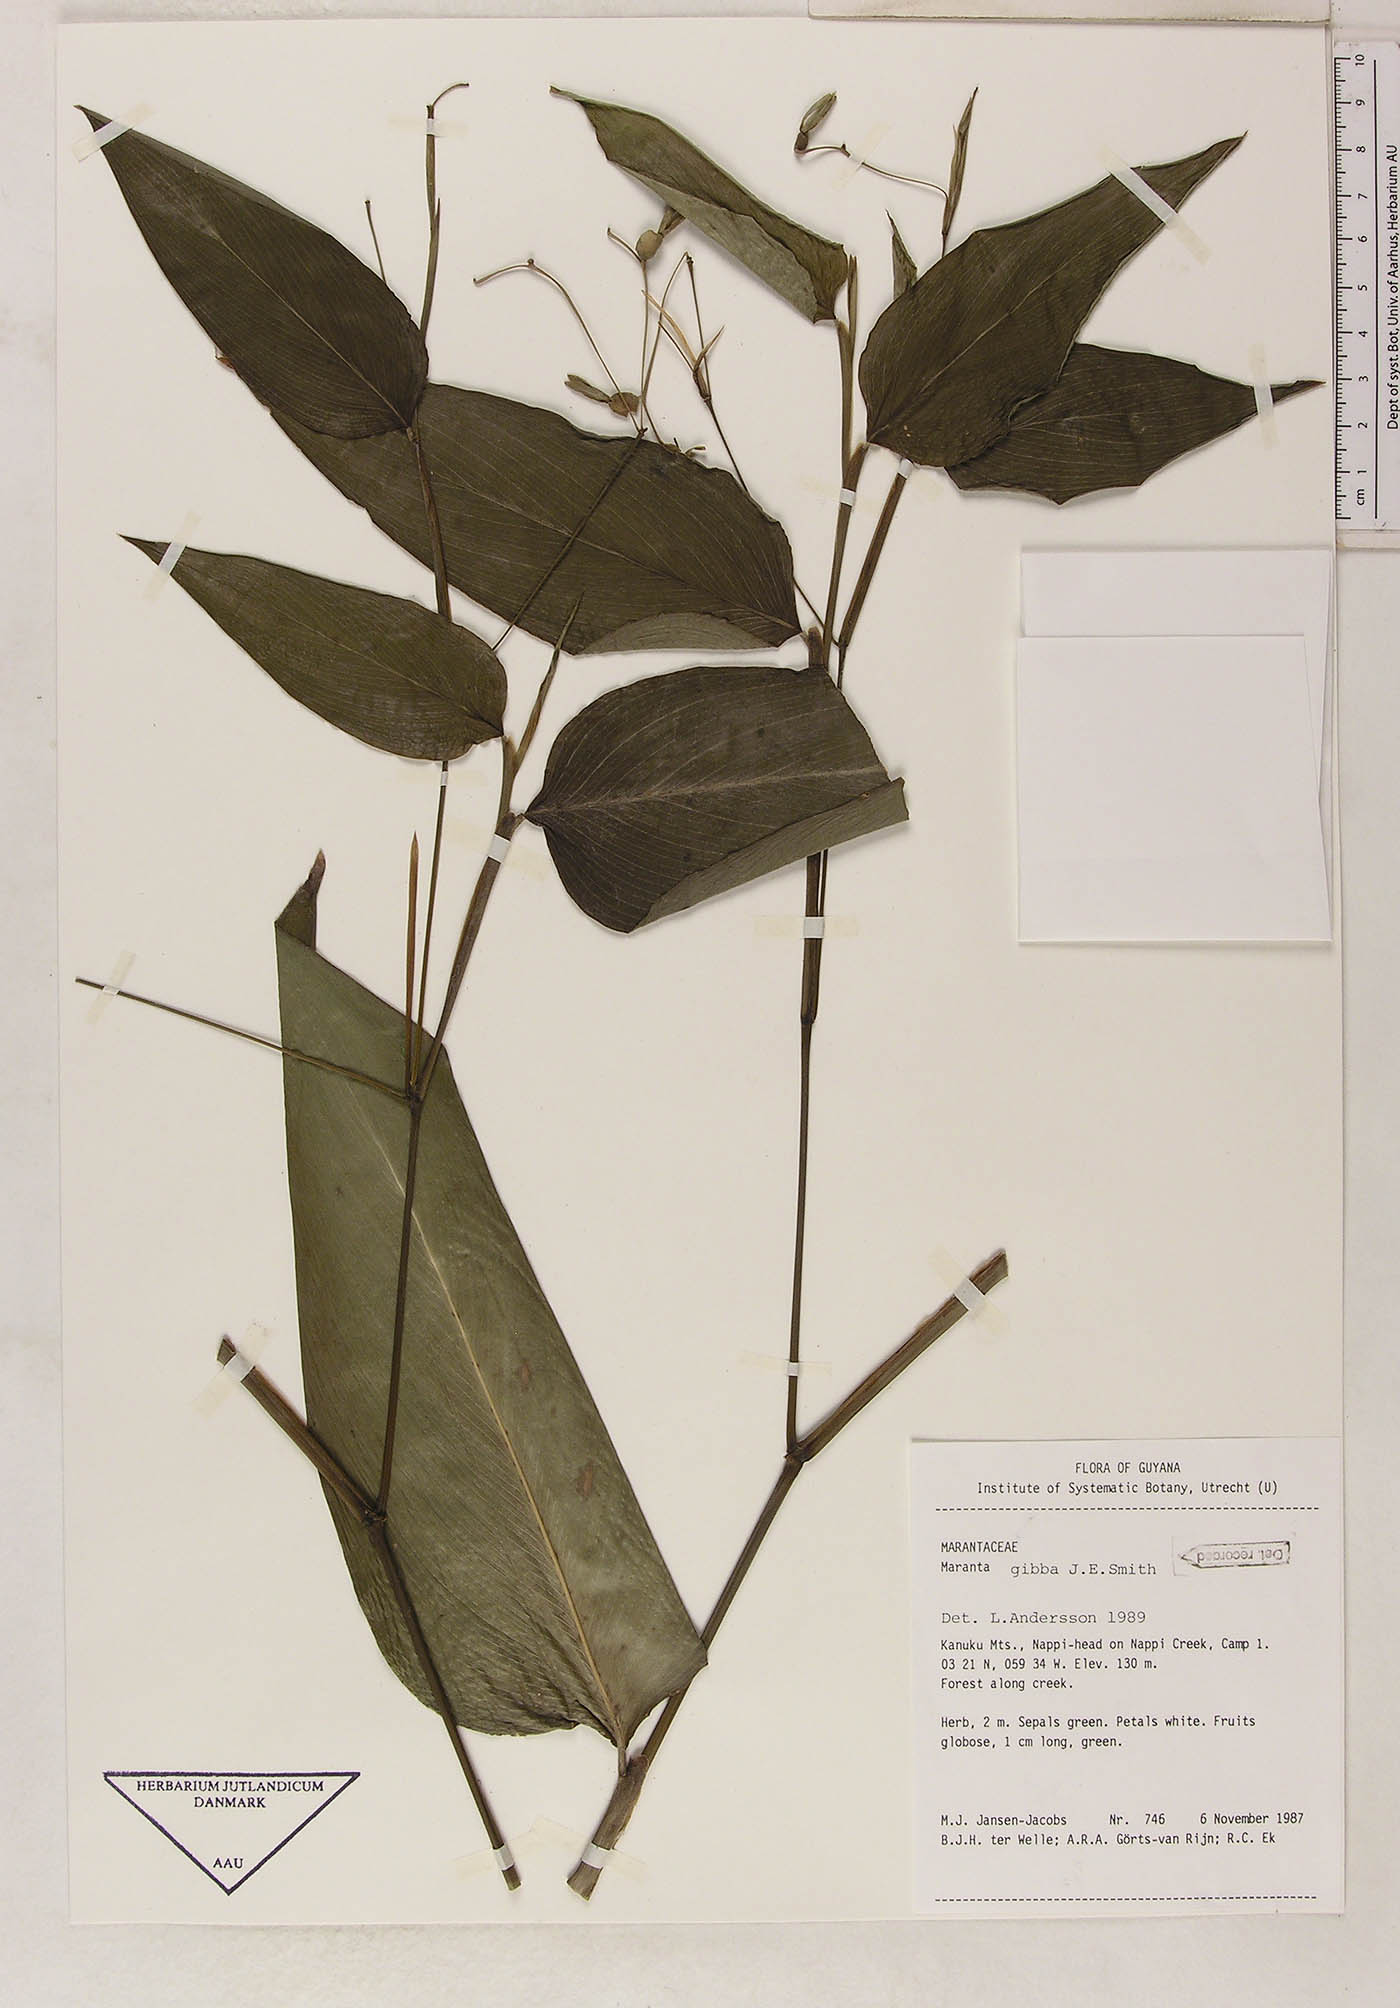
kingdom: Plantae
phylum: Tracheophyta
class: Liliopsida
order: Zingiberales
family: Marantaceae
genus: Maranta
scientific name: Maranta gibba
